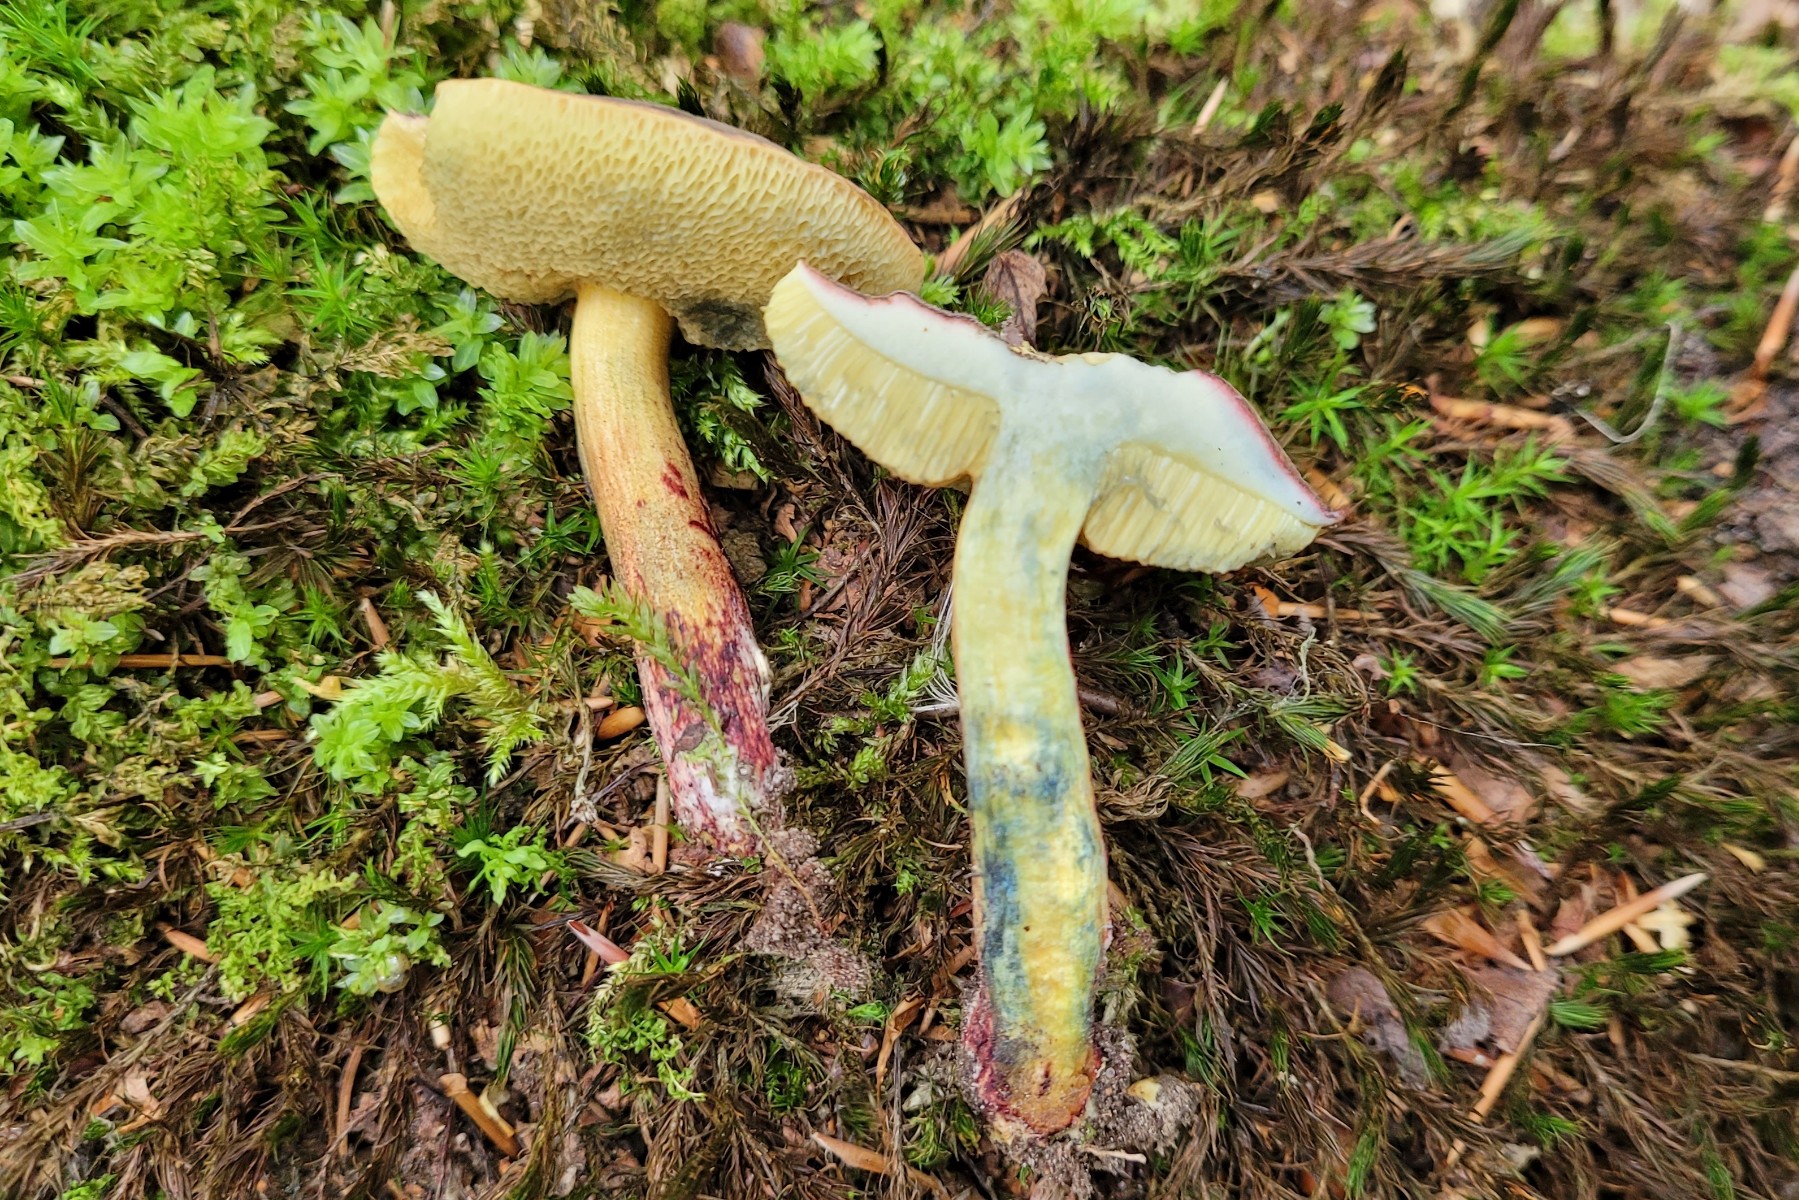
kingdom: Fungi
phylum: Basidiomycota
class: Agaricomycetes
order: Boletales
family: Boletaceae
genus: Xerocomellus
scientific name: Xerocomellus cisalpinus
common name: finsprukken rørhat
